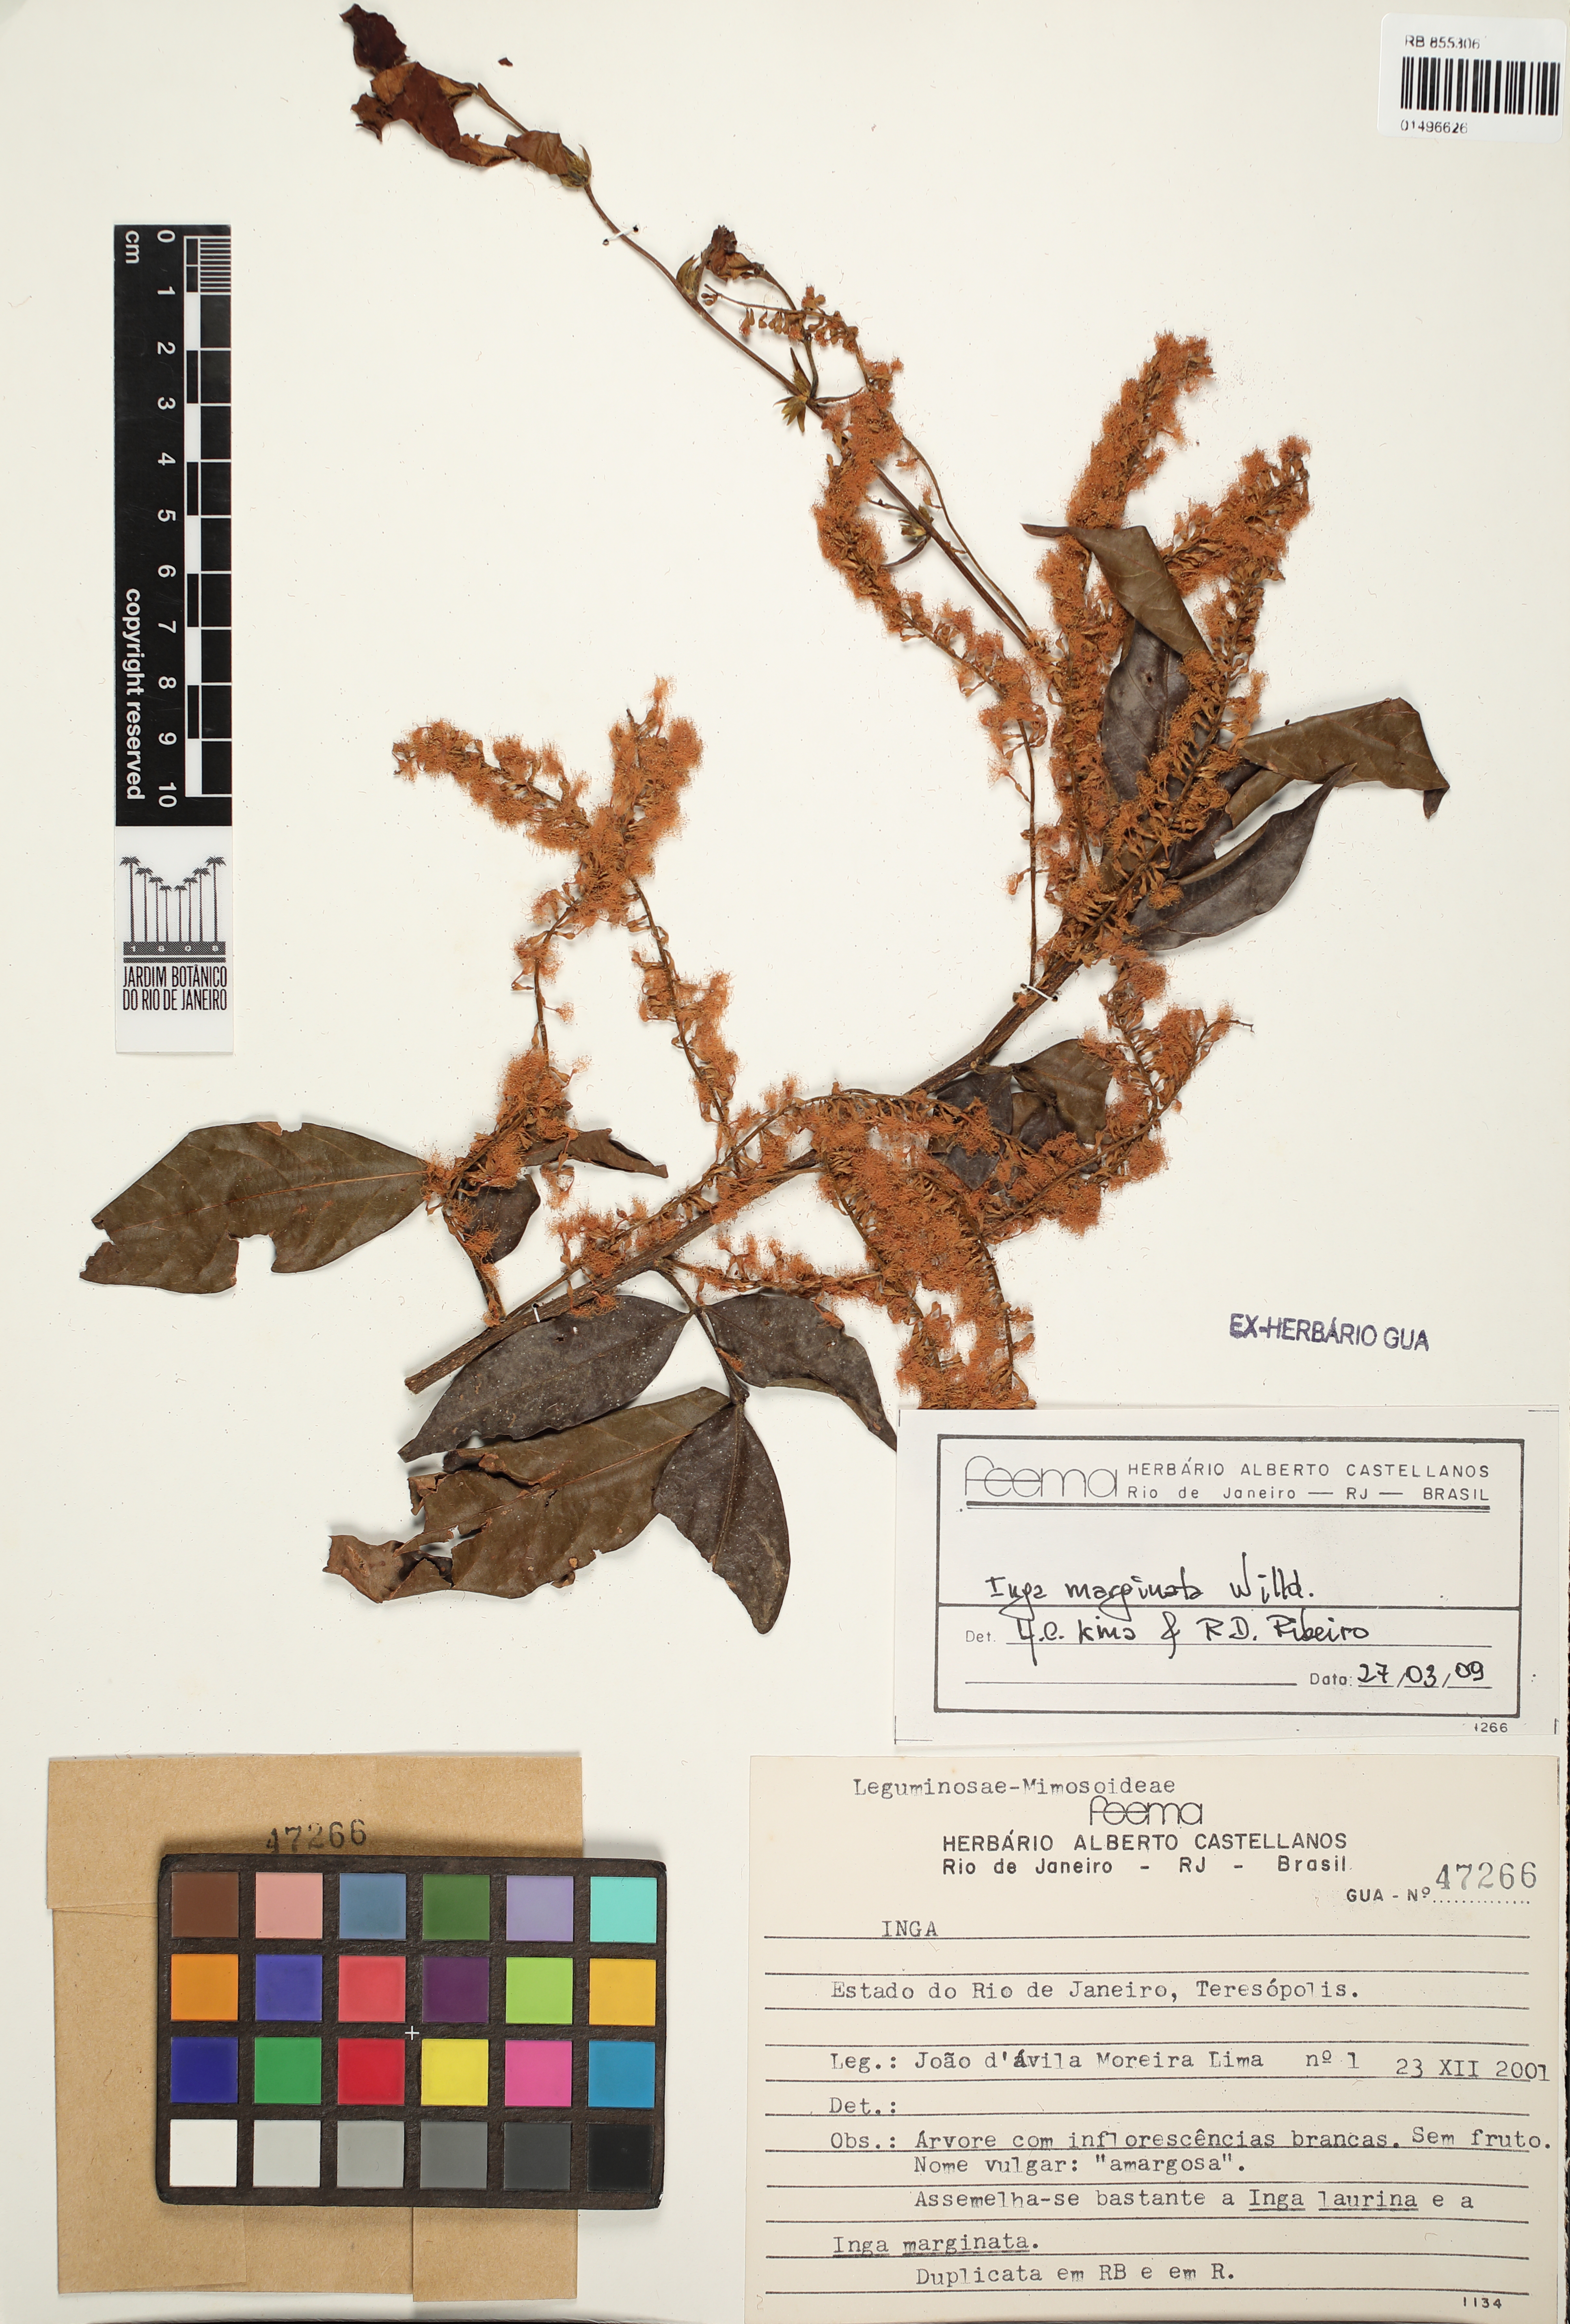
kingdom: Plantae
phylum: Tracheophyta
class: Magnoliopsida
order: Fabales
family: Fabaceae
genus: Inga
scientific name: Inga marginata
